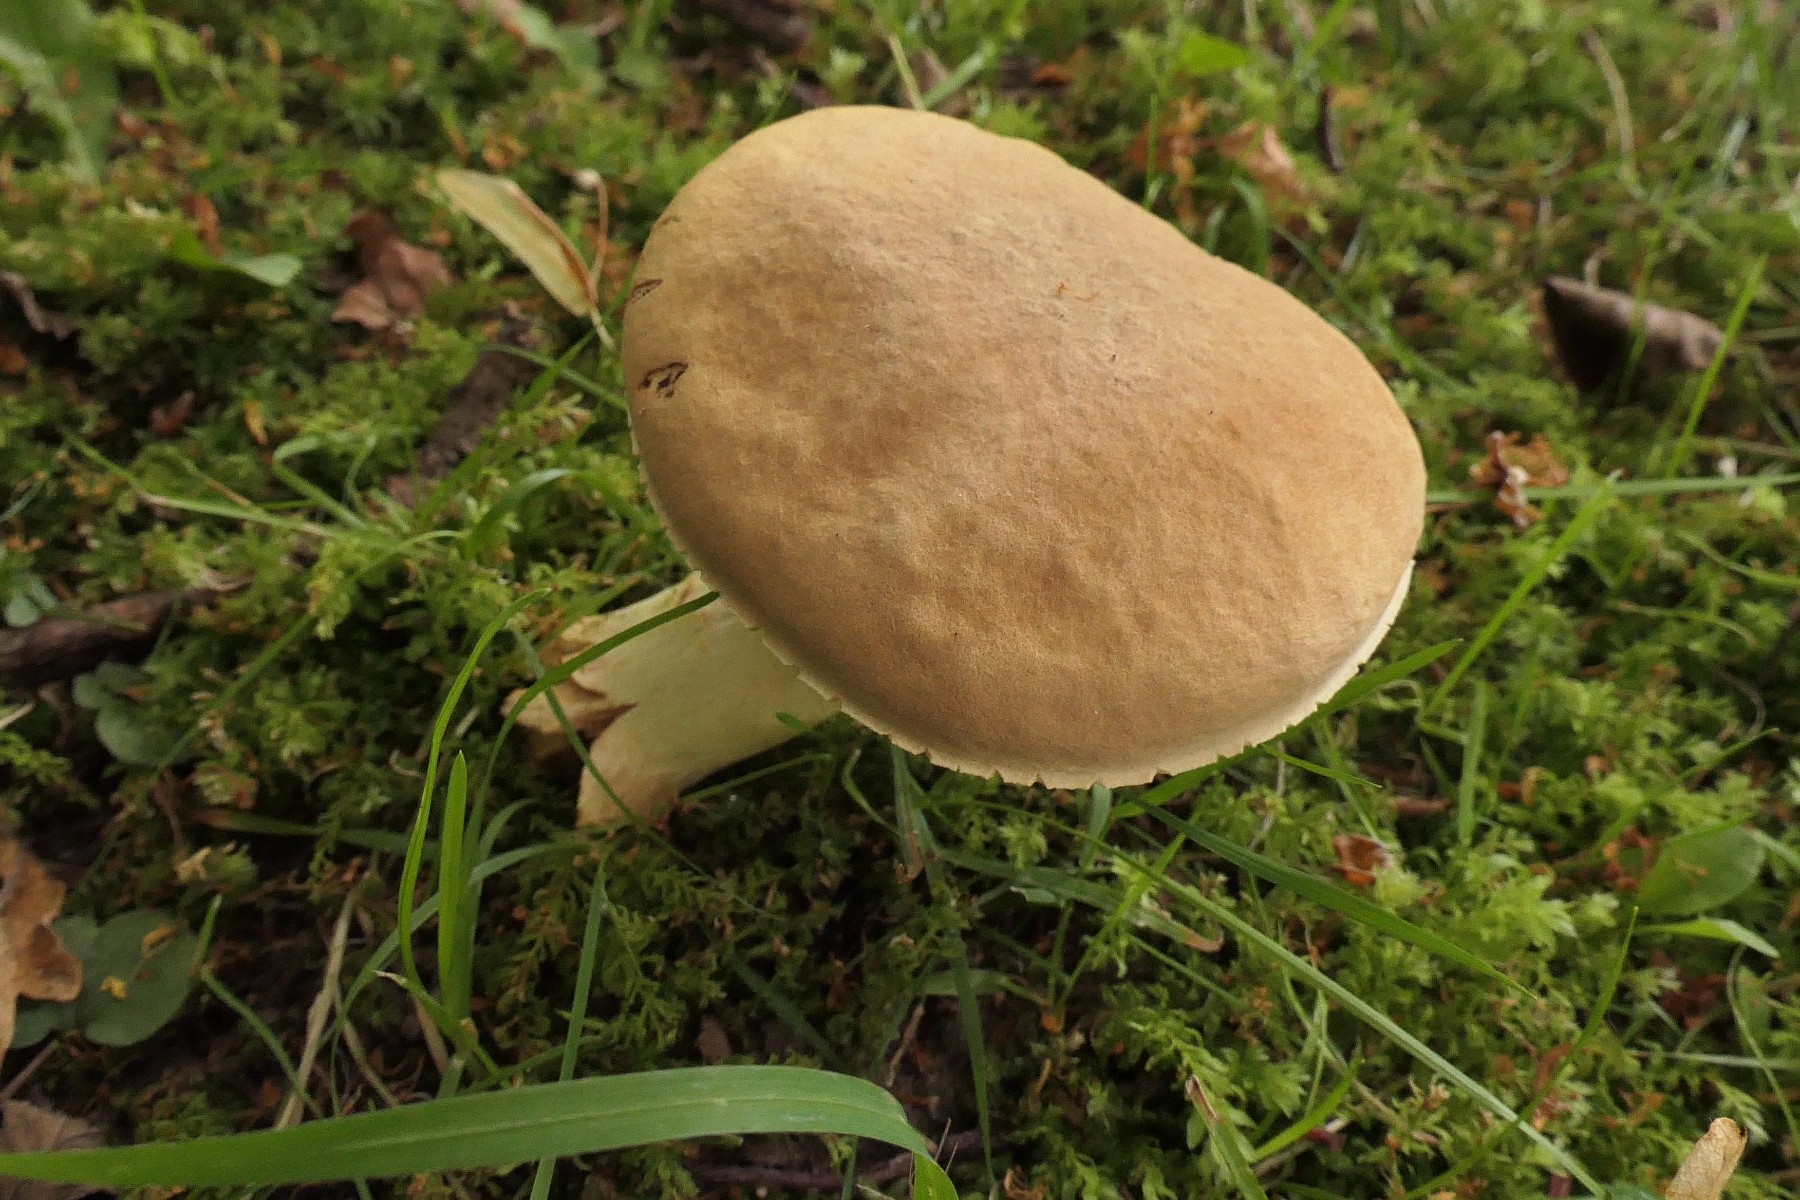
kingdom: Fungi
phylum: Basidiomycota
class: Agaricomycetes
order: Boletales
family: Boletaceae
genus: Xerocomus
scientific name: Xerocomus subtomentosus
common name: filtet rørhat
